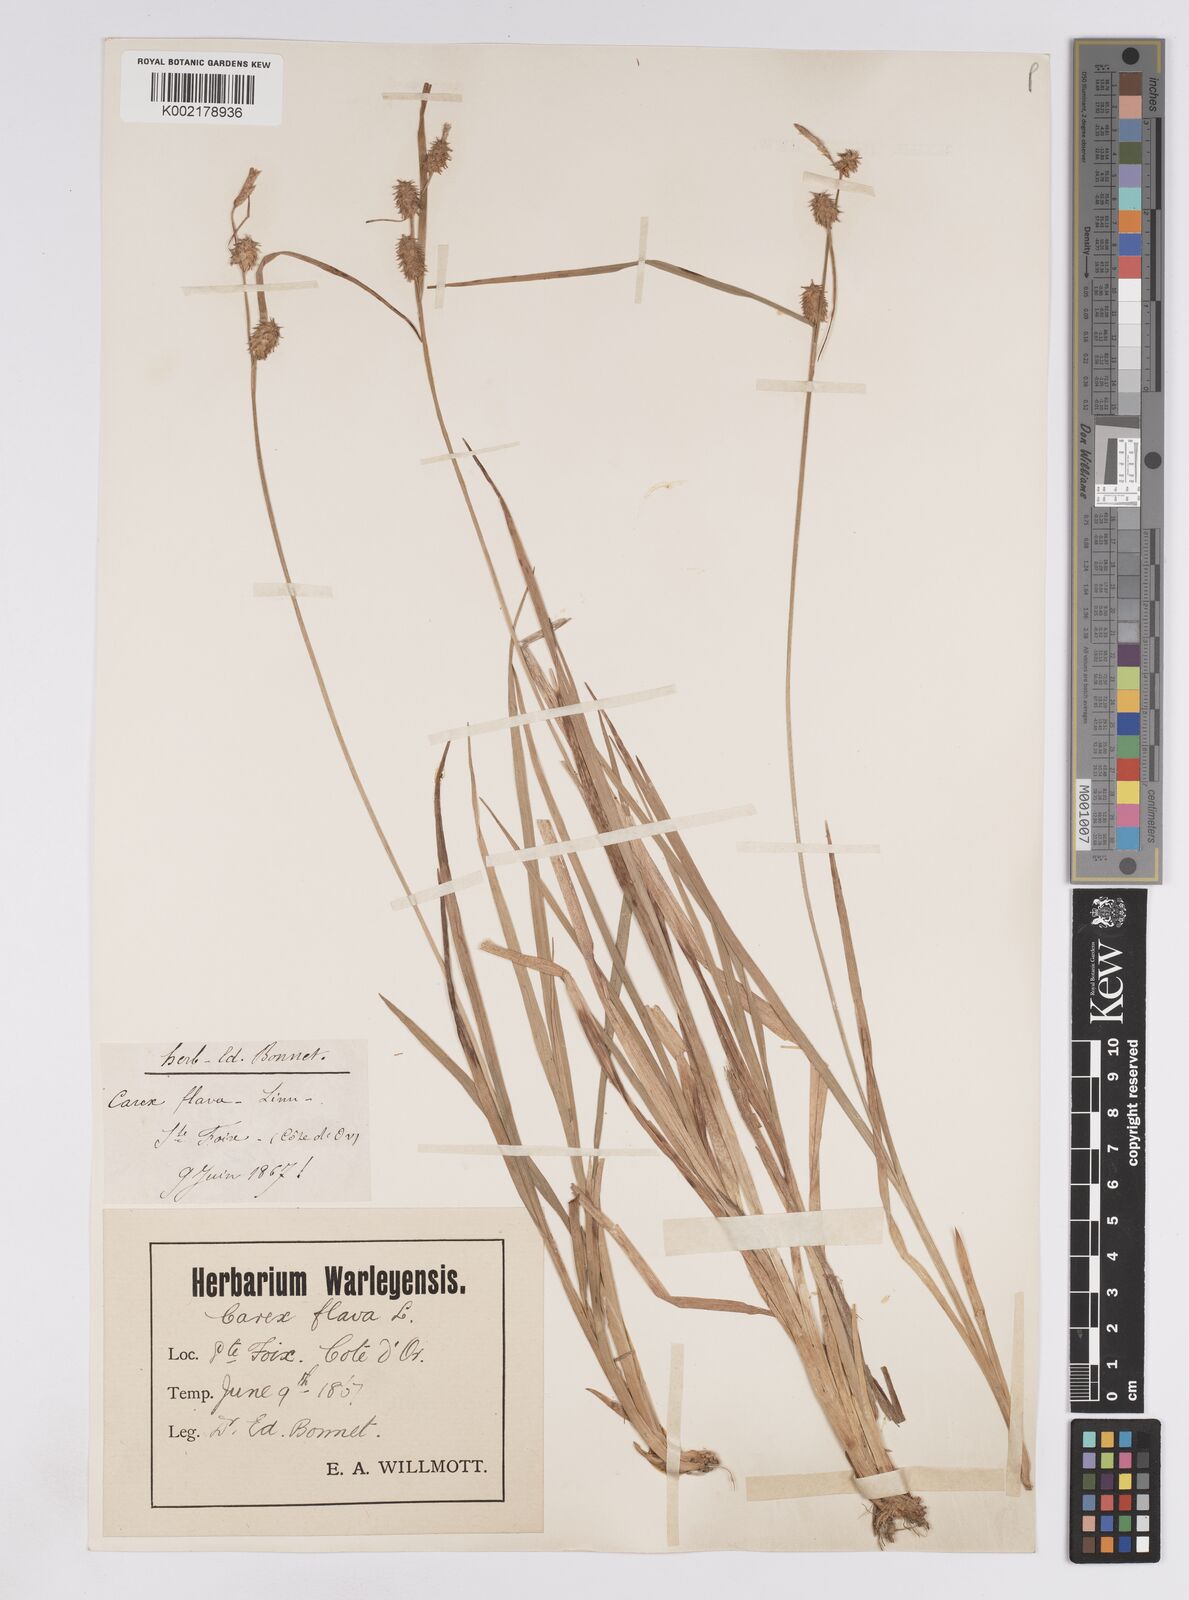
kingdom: Plantae
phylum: Tracheophyta
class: Liliopsida
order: Poales
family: Cyperaceae
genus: Carex
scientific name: Carex lepidocarpa
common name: Long-stalked yellow-sedge
